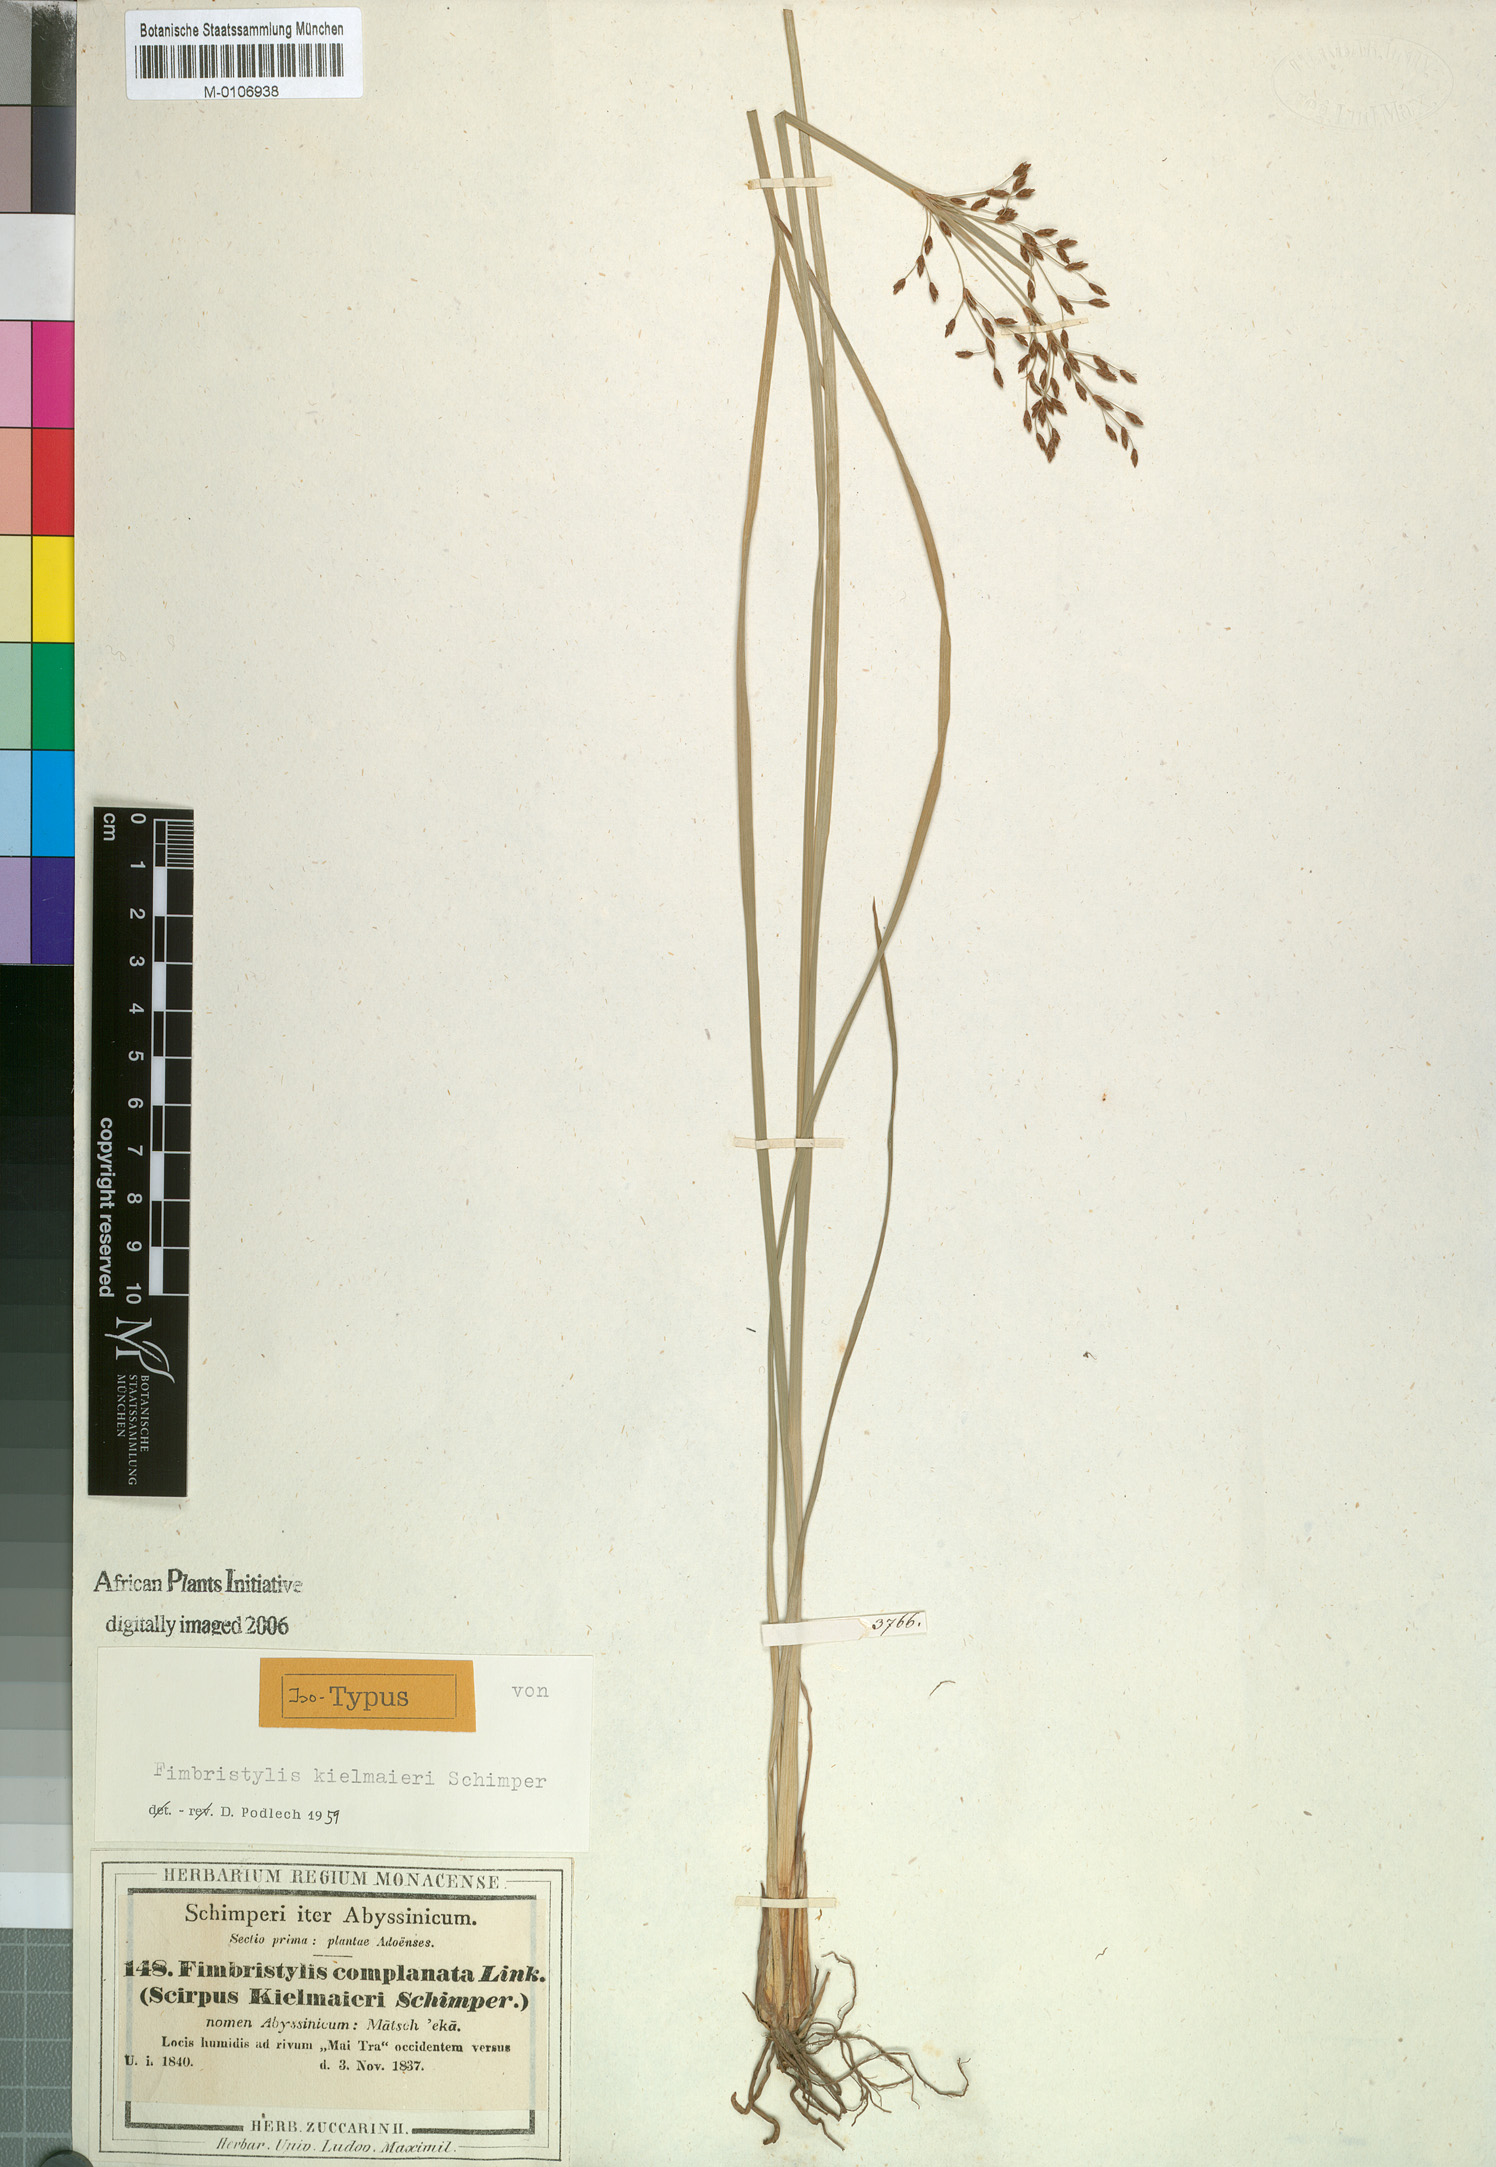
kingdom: Plantae
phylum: Tracheophyta
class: Liliopsida
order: Poales
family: Cyperaceae
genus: Fimbristylis
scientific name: Fimbristylis complanata
